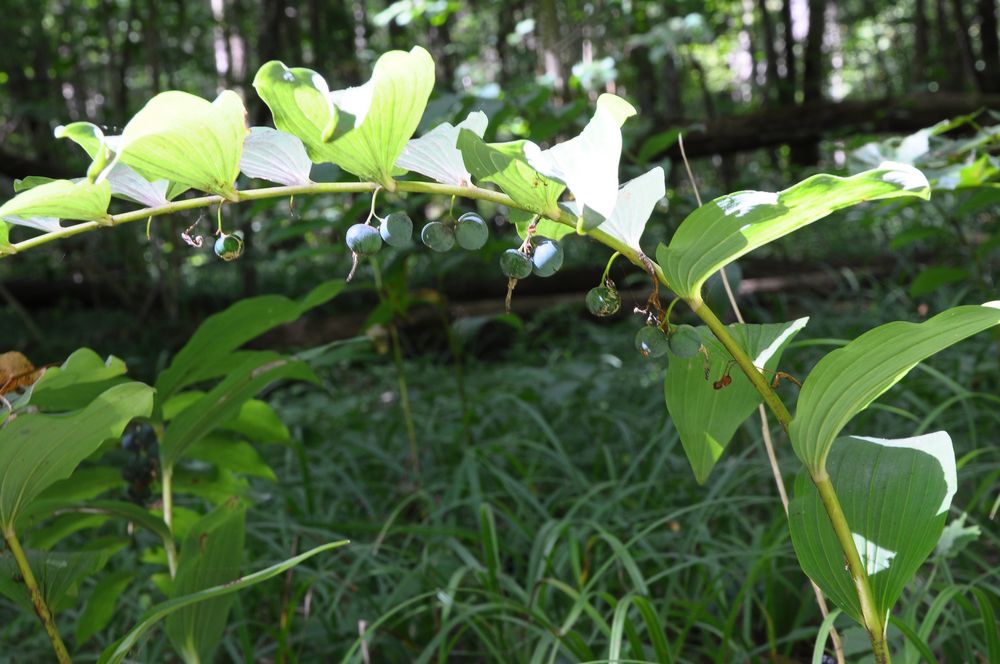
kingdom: Plantae
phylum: Tracheophyta
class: Liliopsida
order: Asparagales
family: Asparagaceae
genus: Polygonatum
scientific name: Polygonatum multiflorum
